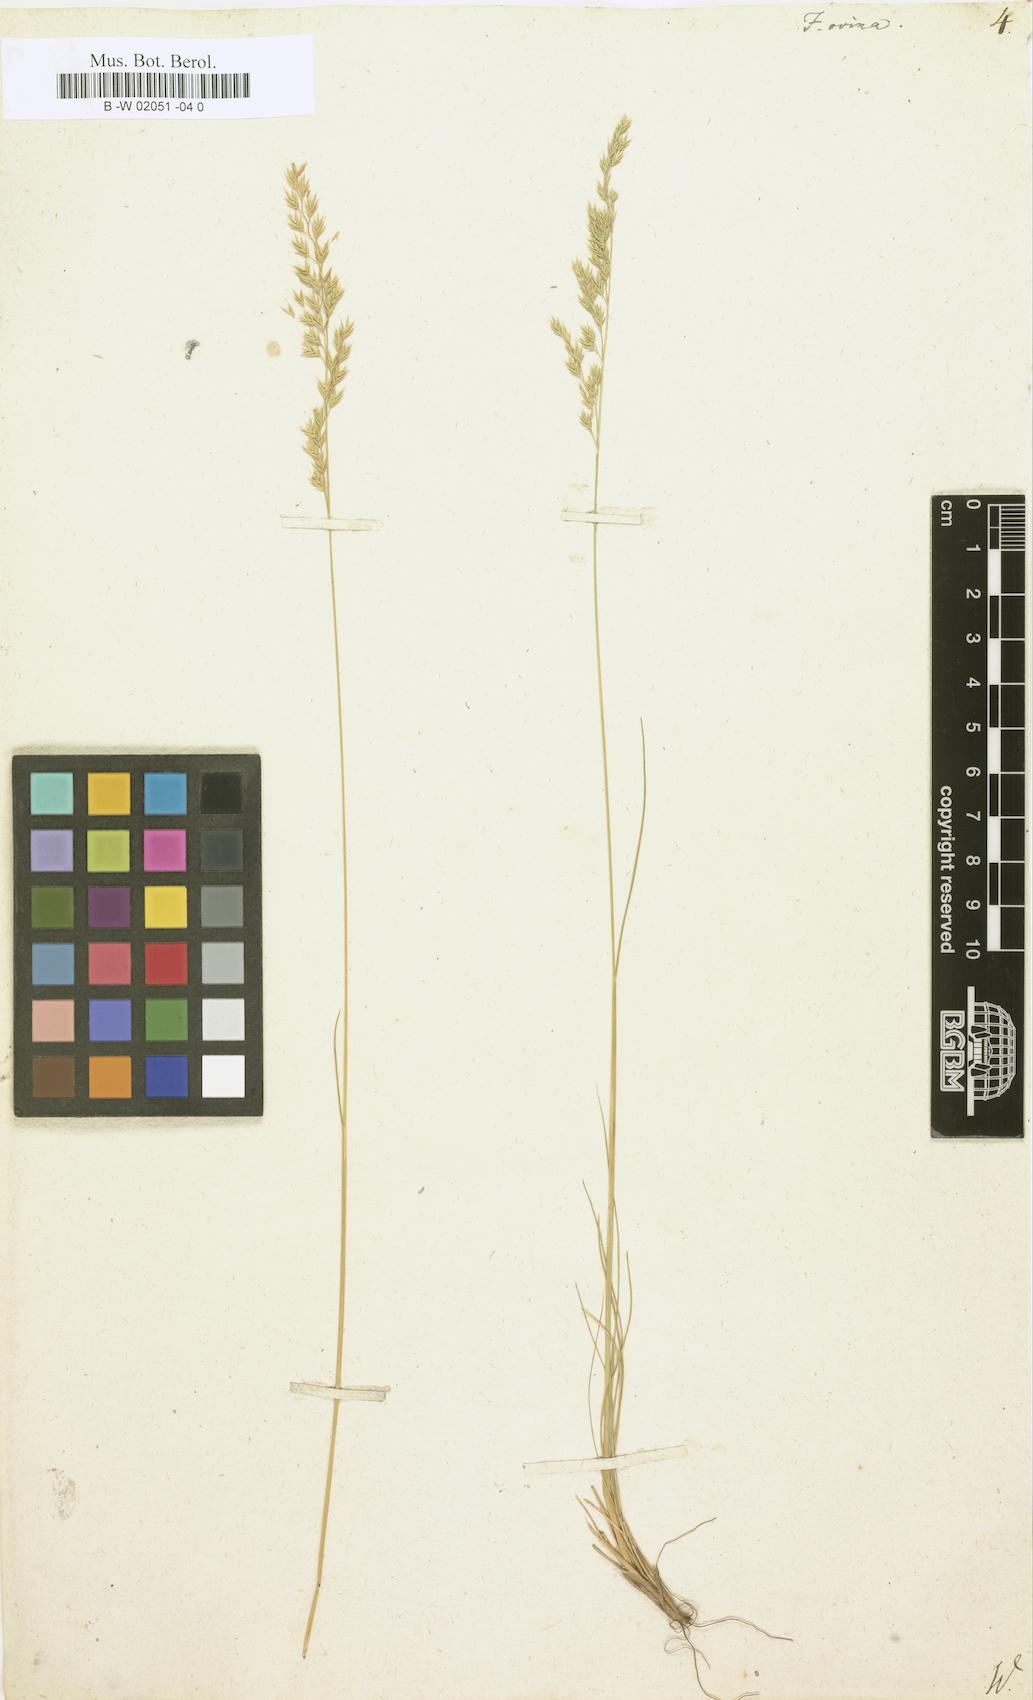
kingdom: Plantae
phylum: Tracheophyta
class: Liliopsida
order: Poales
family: Poaceae
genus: Festuca
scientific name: Festuca ovina
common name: Sheep fescue
